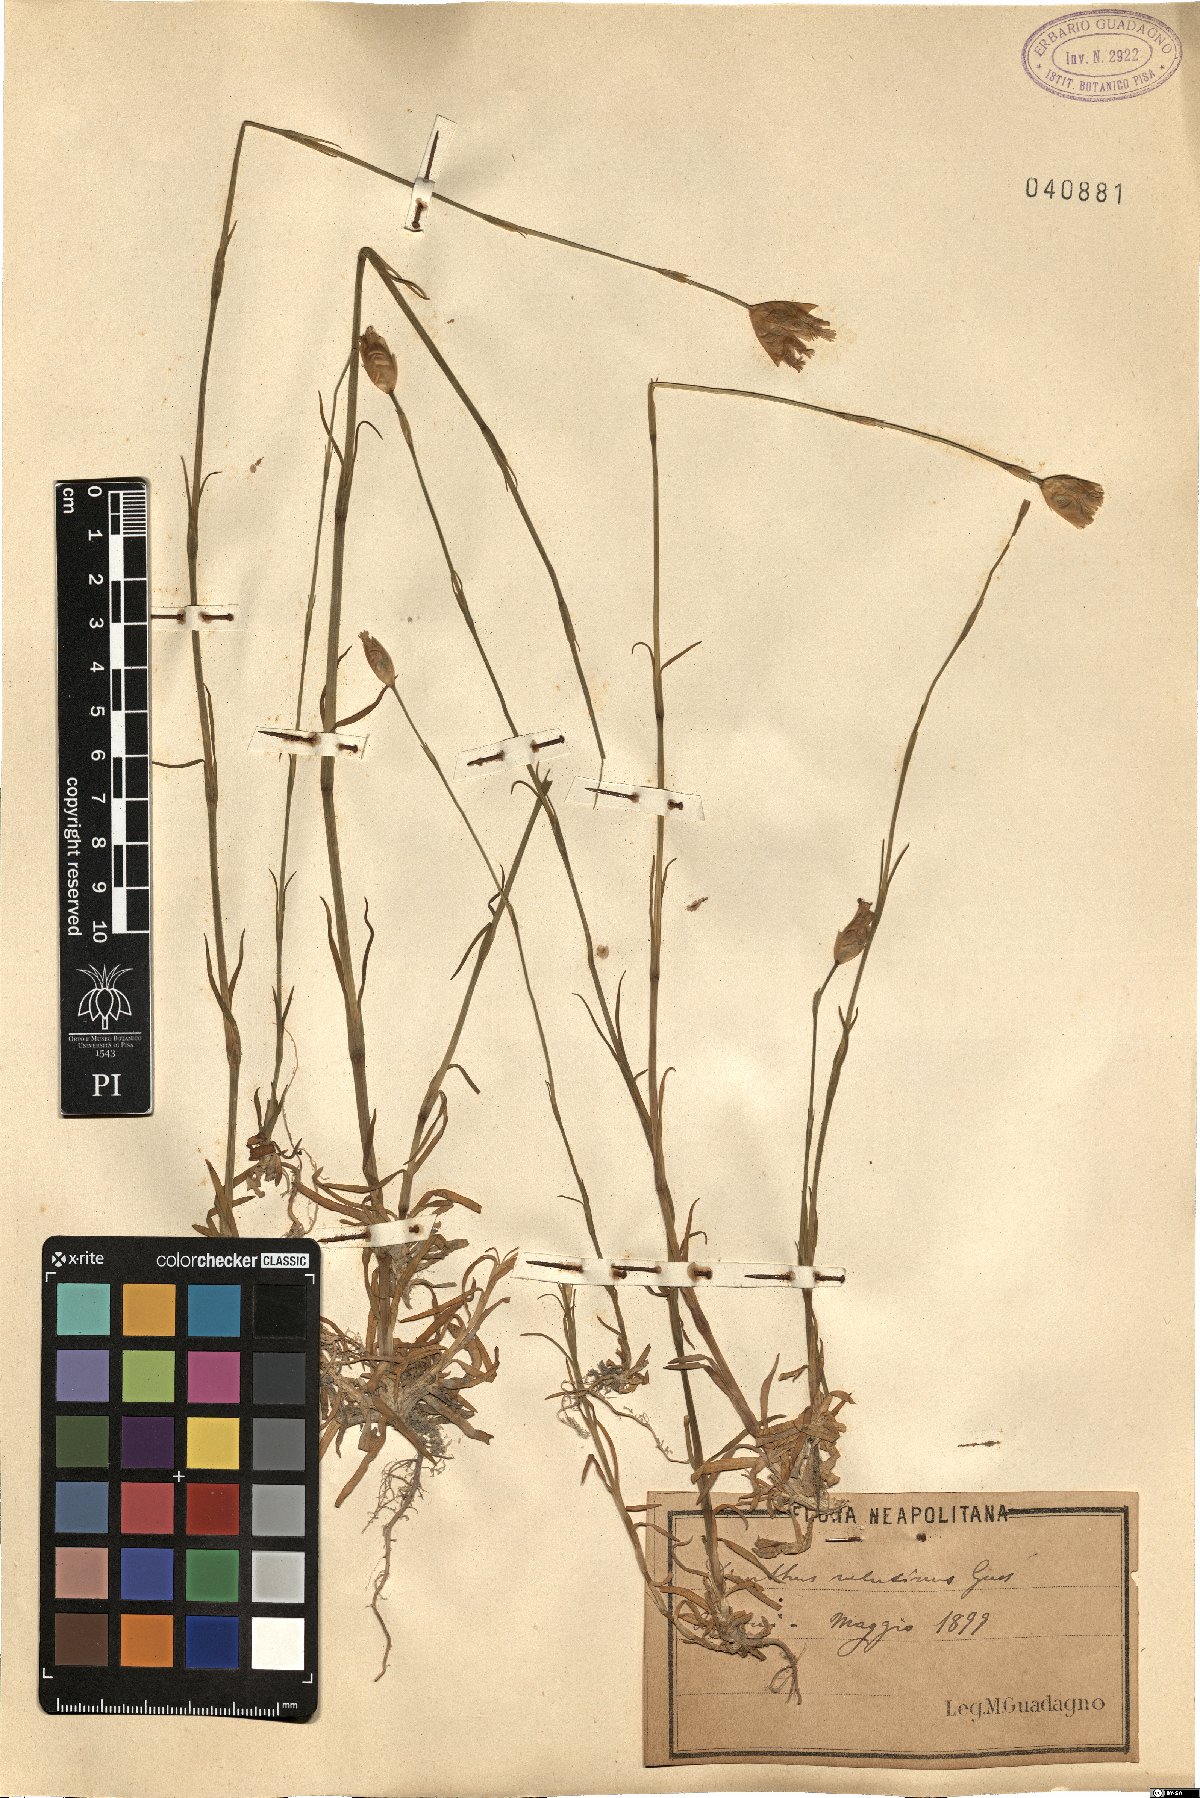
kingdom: Plantae
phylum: Tracheophyta
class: Magnoliopsida
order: Caryophyllales
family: Caryophyllaceae
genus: Petrorhagia
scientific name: Petrorhagia dubia
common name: Hairypink
